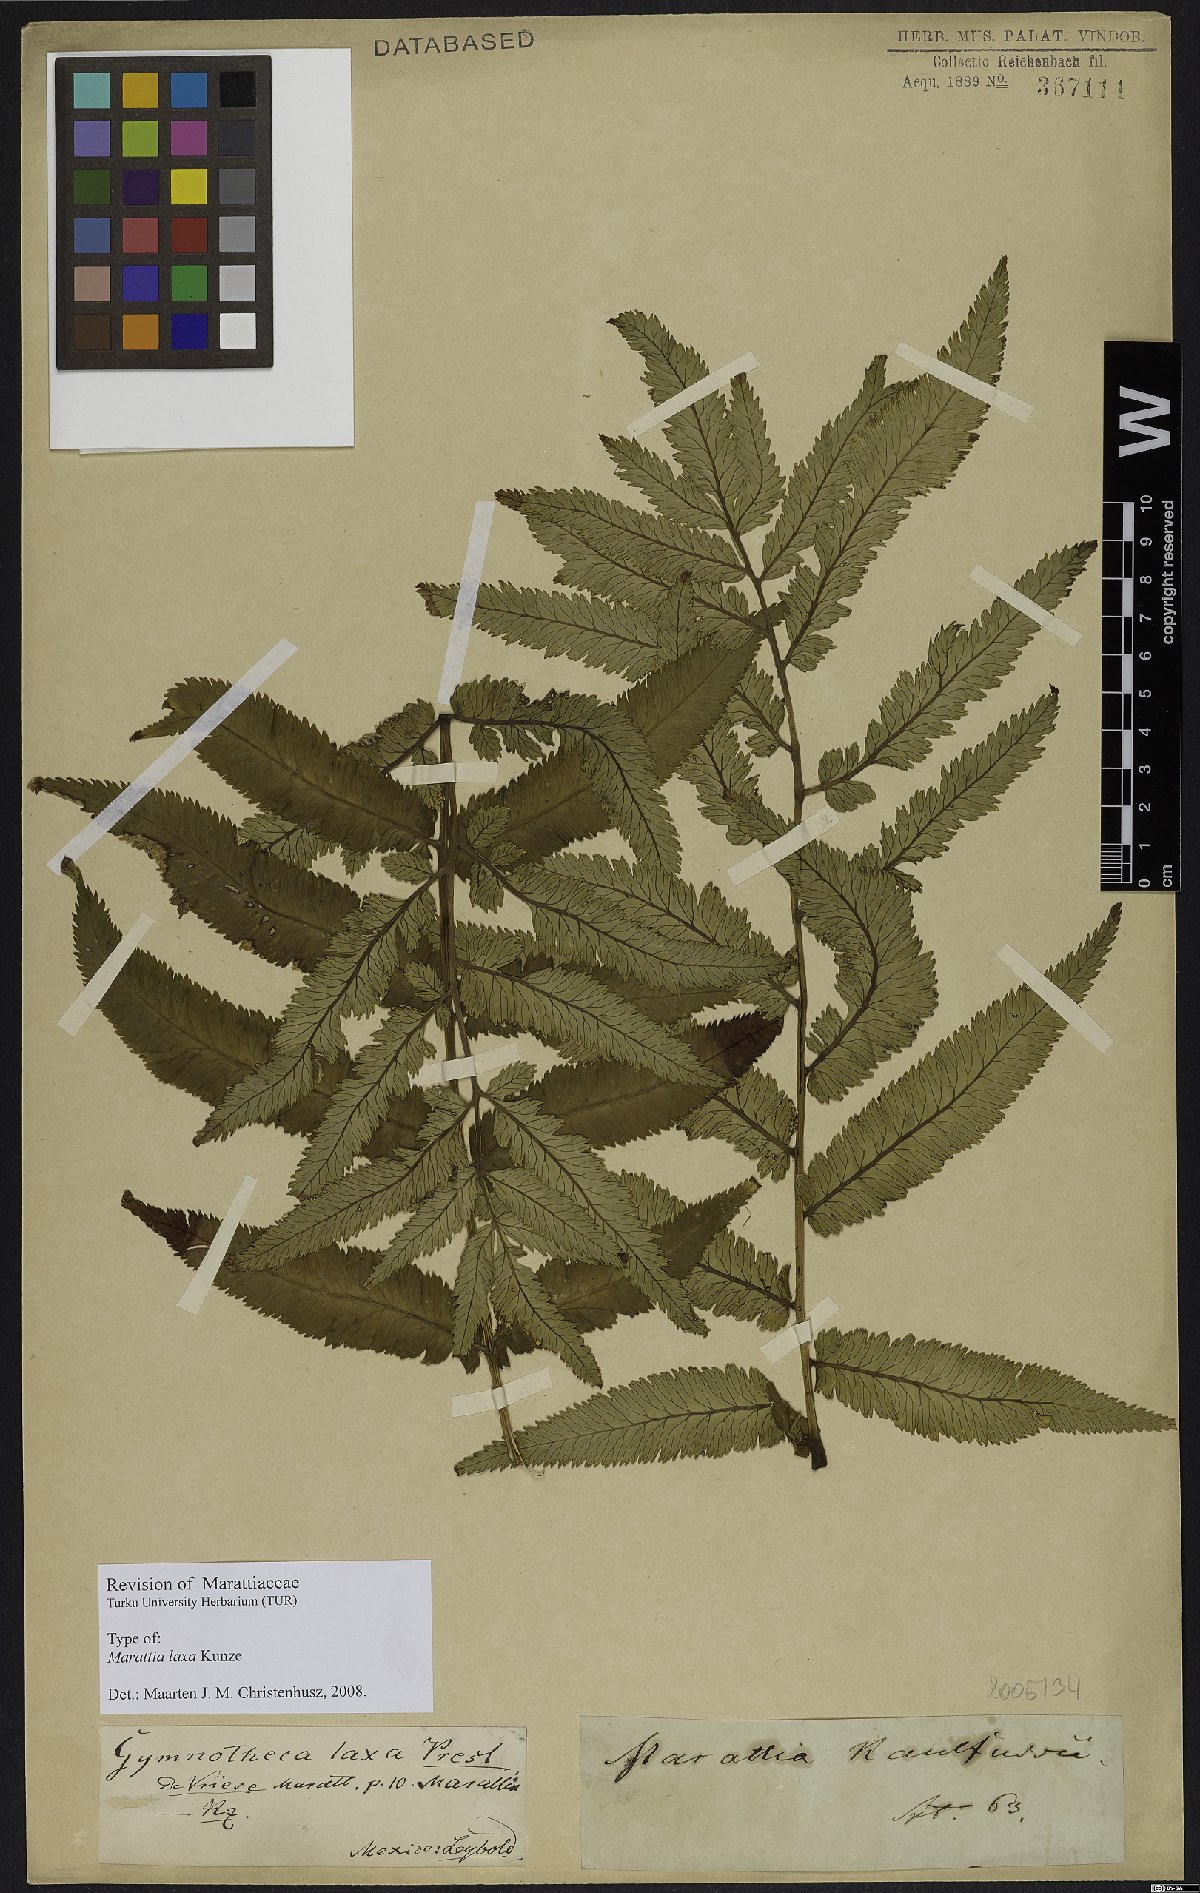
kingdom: Plantae
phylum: Tracheophyta
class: Polypodiopsida
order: Marattiales
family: Marattiaceae
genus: Marattia
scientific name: Marattia laxa
